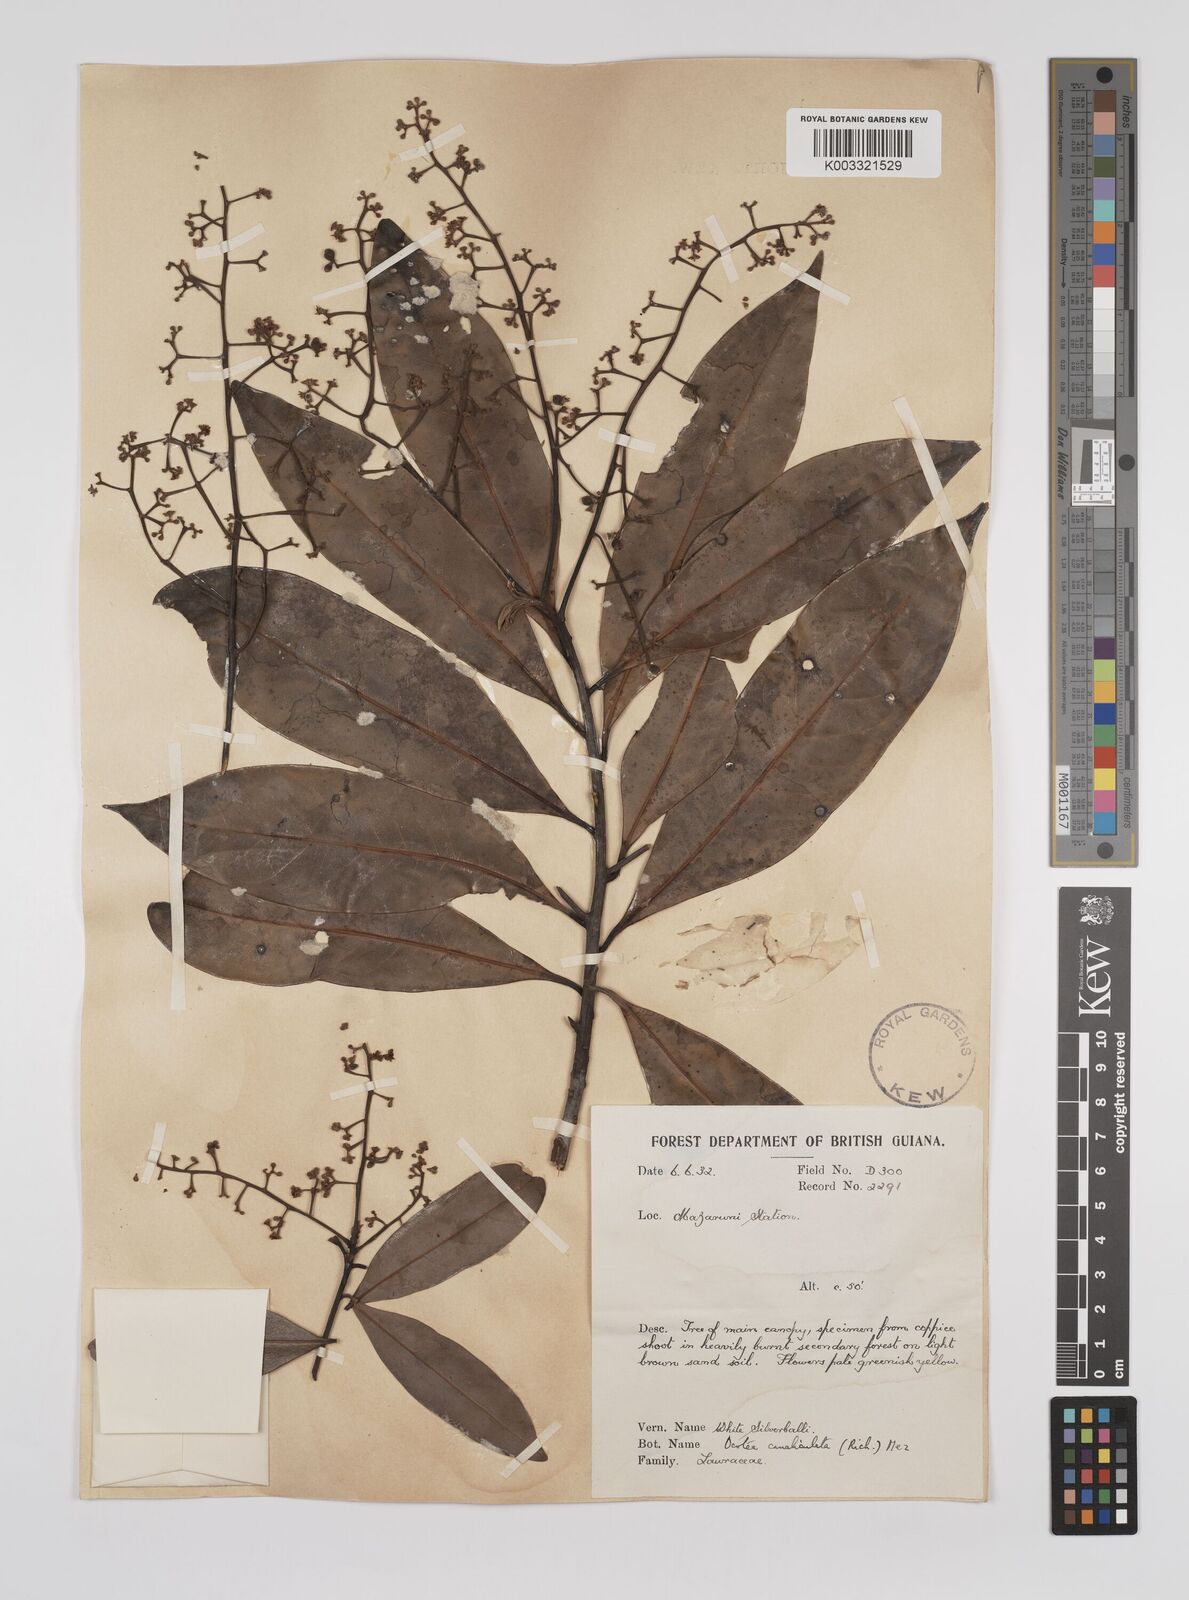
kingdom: Plantae
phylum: Tracheophyta
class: Magnoliopsida
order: Laurales
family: Lauraceae
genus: Ocotea
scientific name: Ocotea canaliculata
